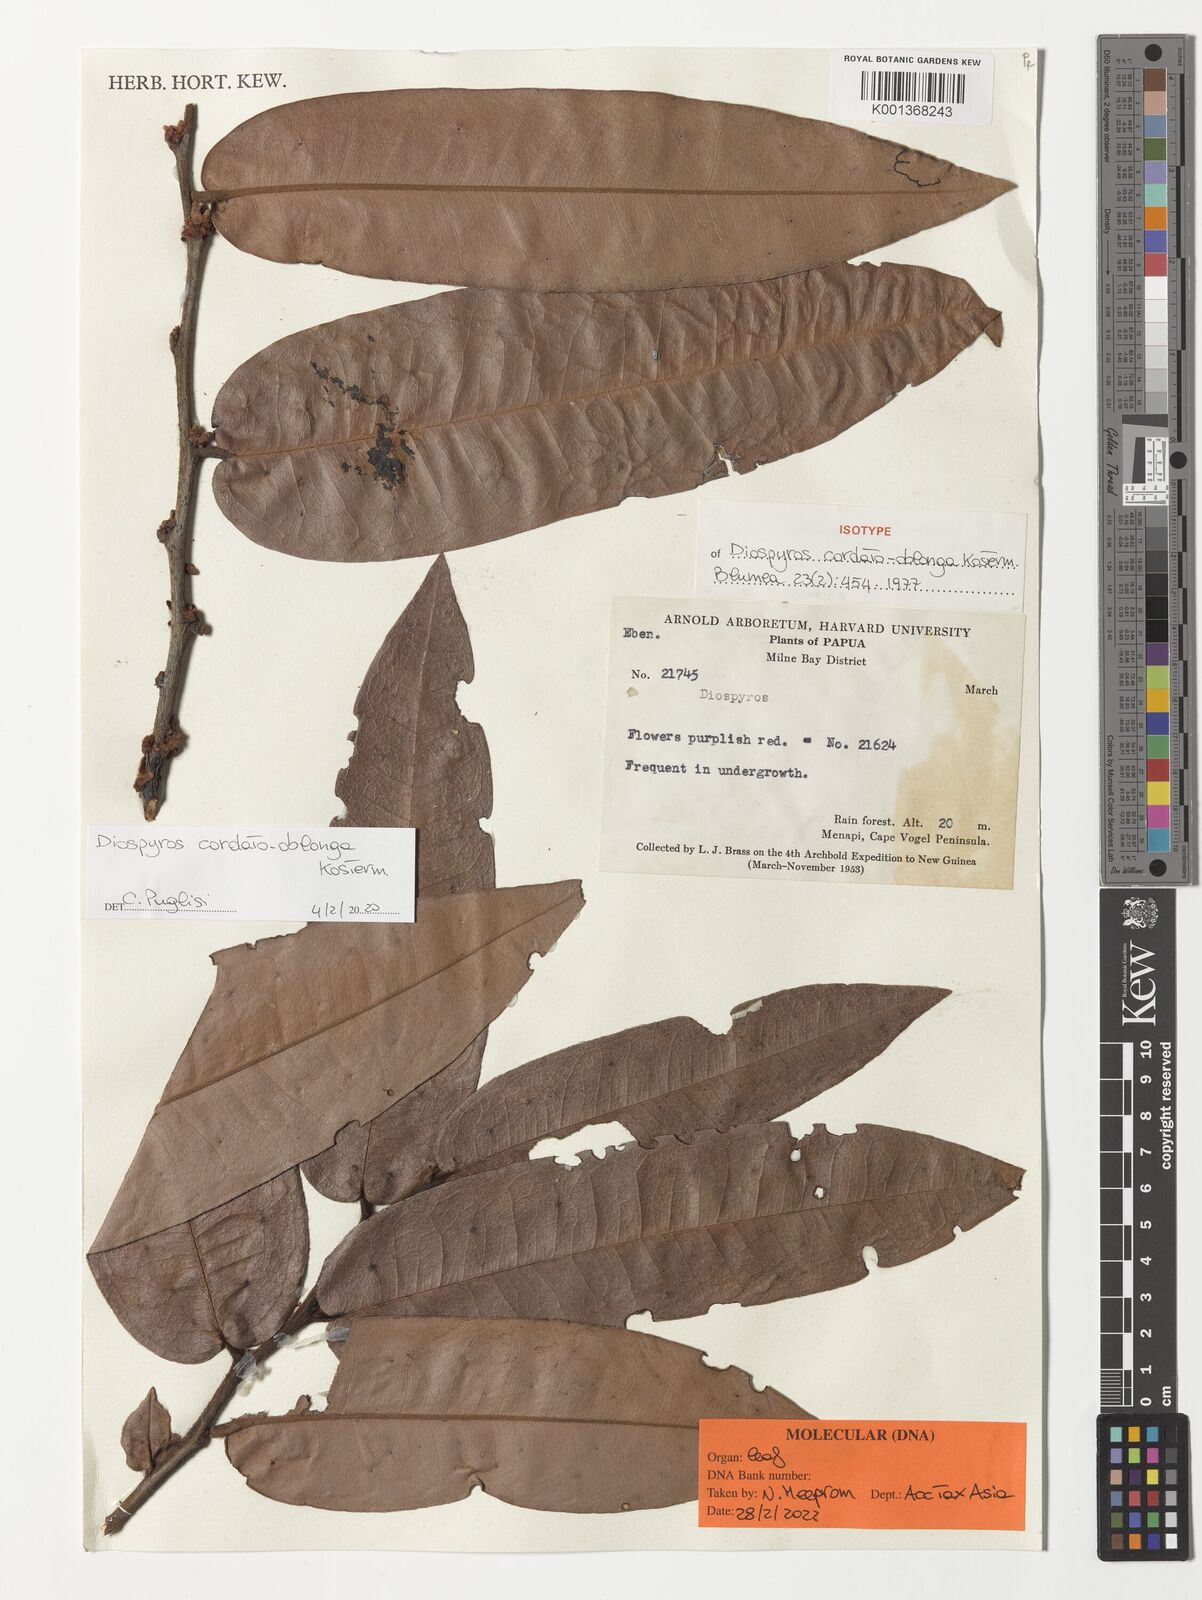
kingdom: Plantae
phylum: Tracheophyta
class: Magnoliopsida
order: Ericales
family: Ebenaceae
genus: Diospyros
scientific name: Diospyros cordato-oblonga
